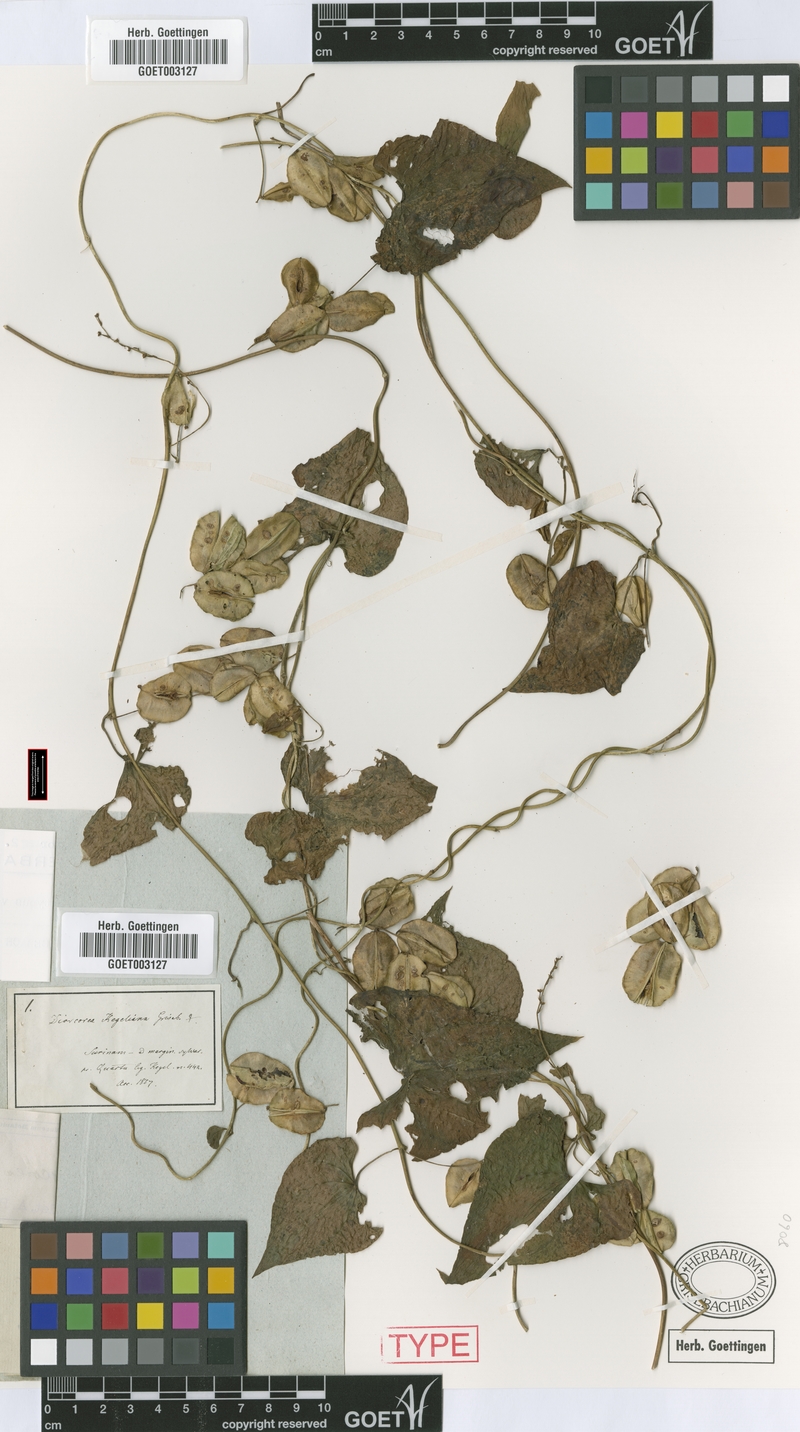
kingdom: Plantae
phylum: Tracheophyta
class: Liliopsida
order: Dioscoreales
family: Dioscoreaceae
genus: Dioscorea
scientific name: Dioscorea polygonoides
